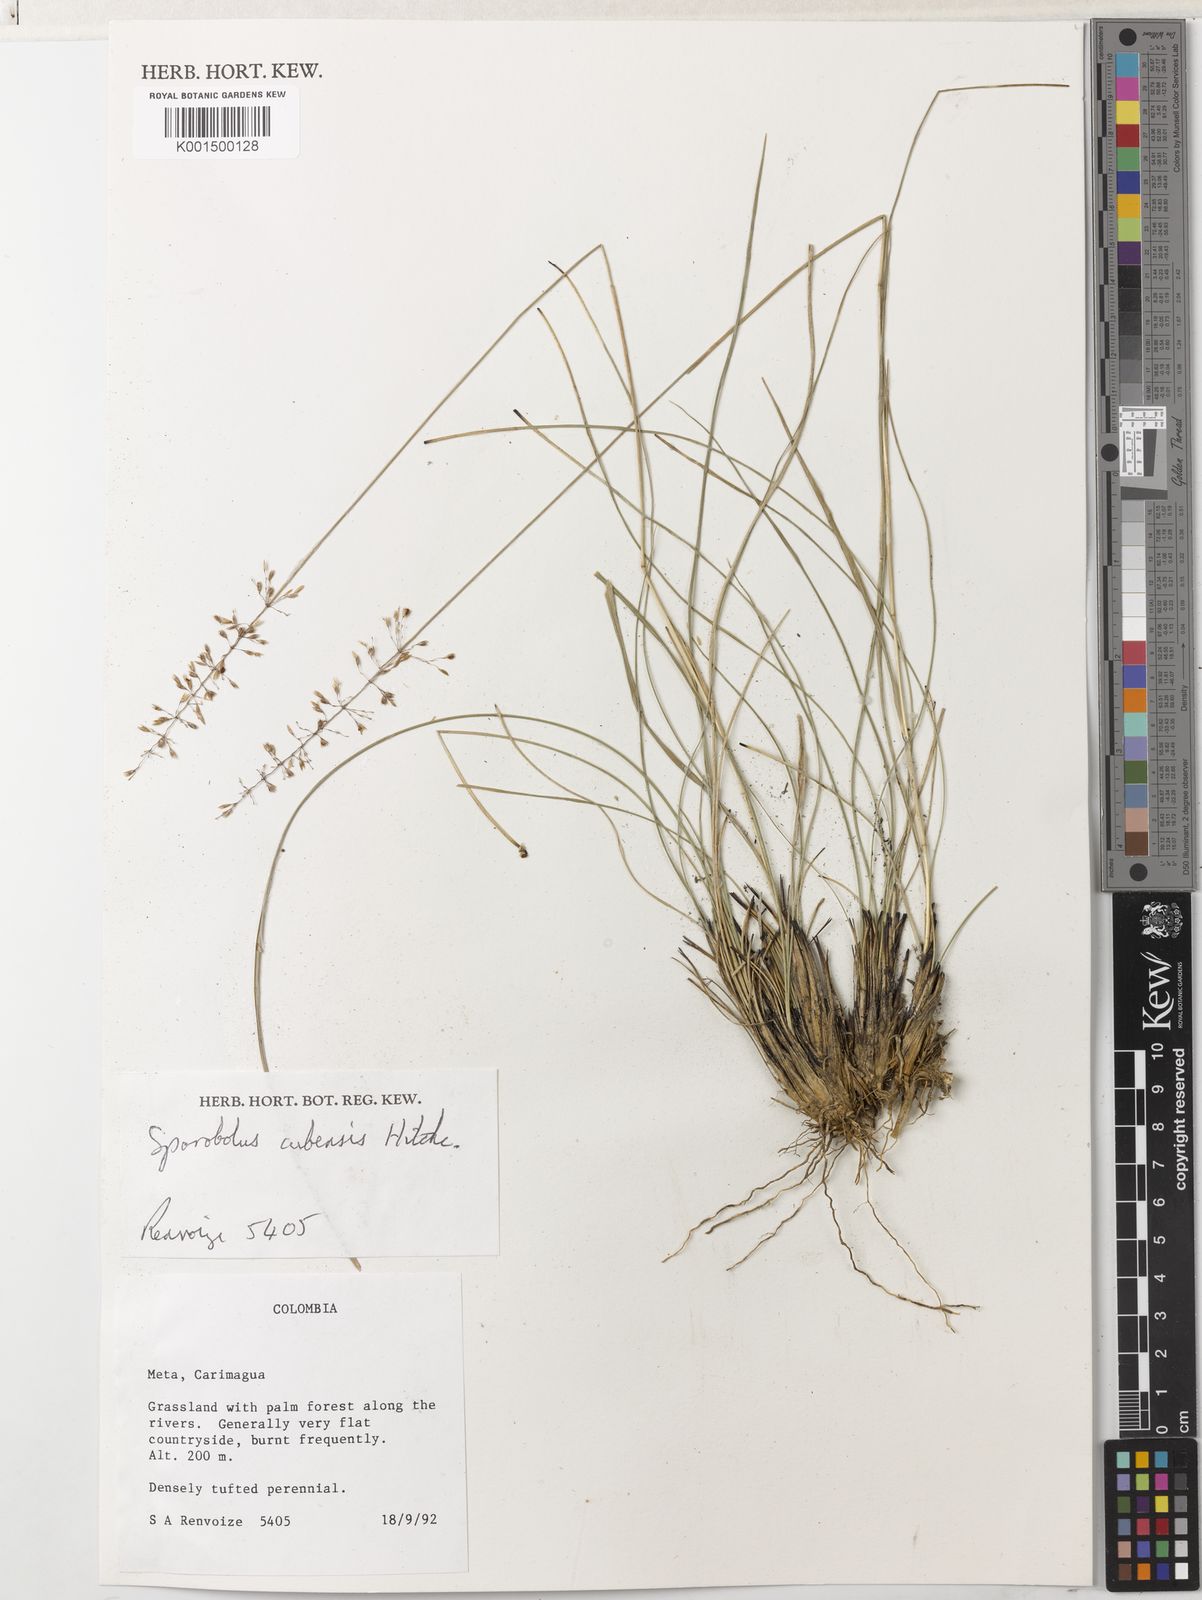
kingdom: Plantae
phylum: Tracheophyta
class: Liliopsida
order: Poales
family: Poaceae
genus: Sporobolus
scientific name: Sporobolus cubensis
